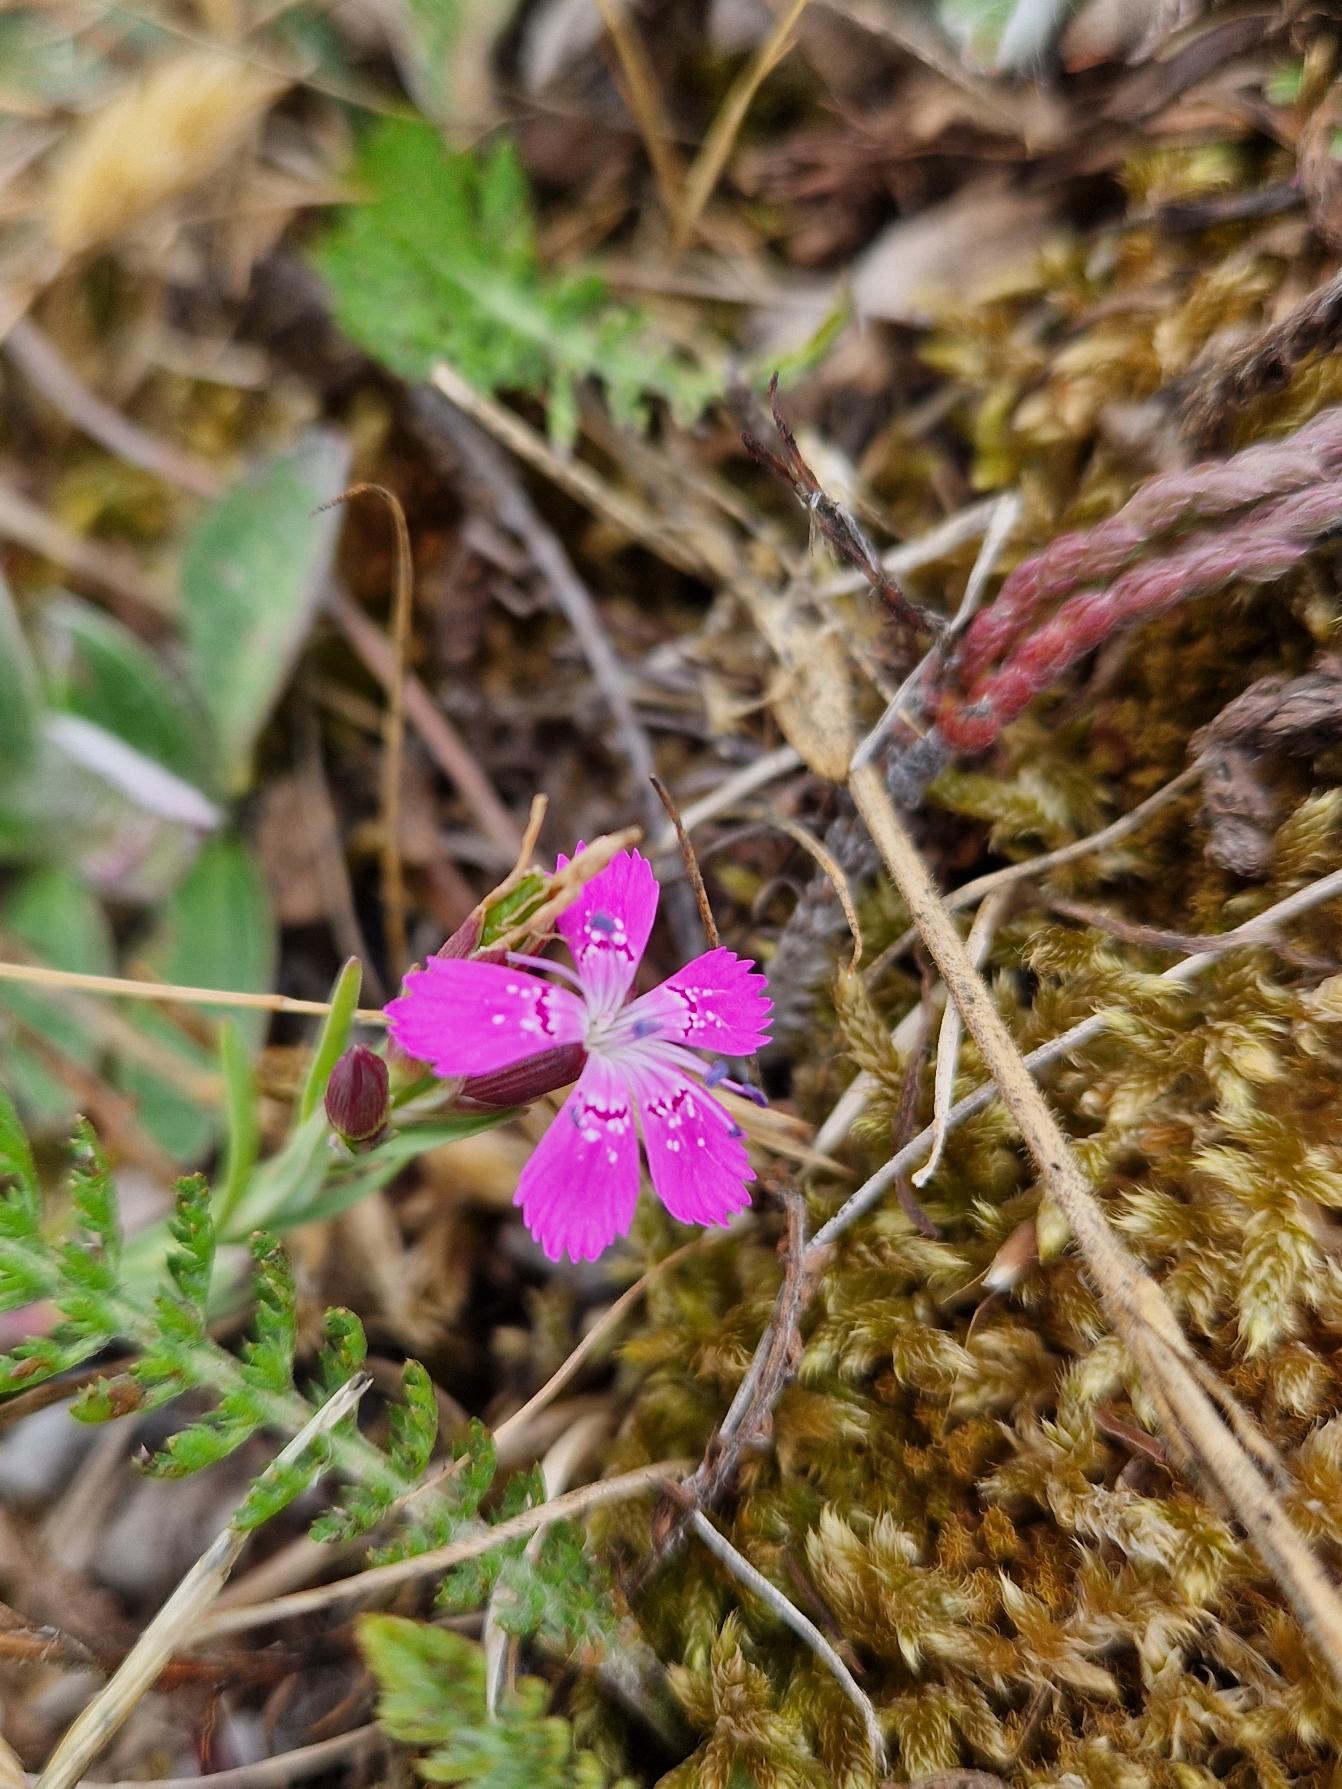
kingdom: Plantae
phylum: Tracheophyta
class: Magnoliopsida
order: Caryophyllales
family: Caryophyllaceae
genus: Dianthus
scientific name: Dianthus deltoides
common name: Bakke-nellike
